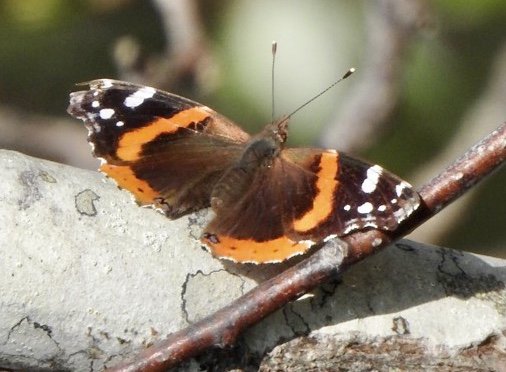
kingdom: Animalia
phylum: Arthropoda
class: Insecta
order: Lepidoptera
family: Nymphalidae
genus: Vanessa
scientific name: Vanessa atalanta
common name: Red Admiral
